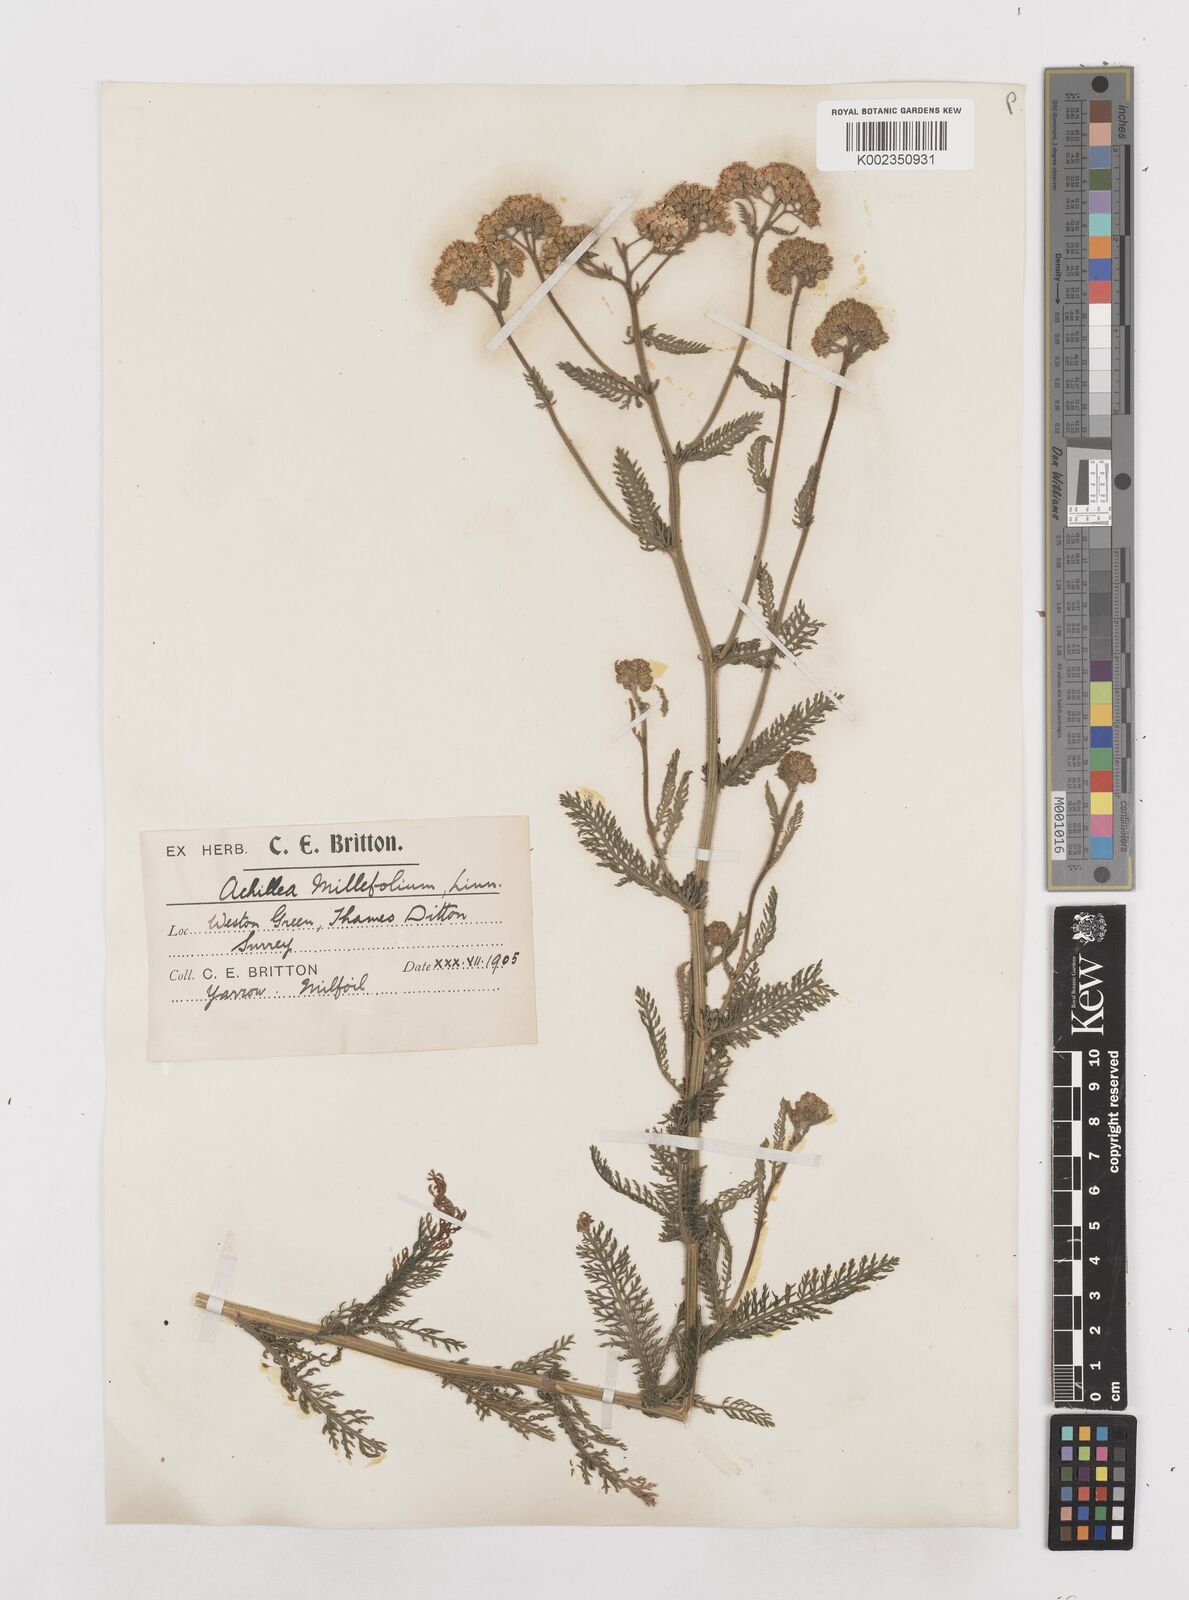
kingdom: Plantae
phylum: Tracheophyta
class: Magnoliopsida
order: Asterales
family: Asteraceae
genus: Achillea
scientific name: Achillea distans
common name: Tall yarrow
